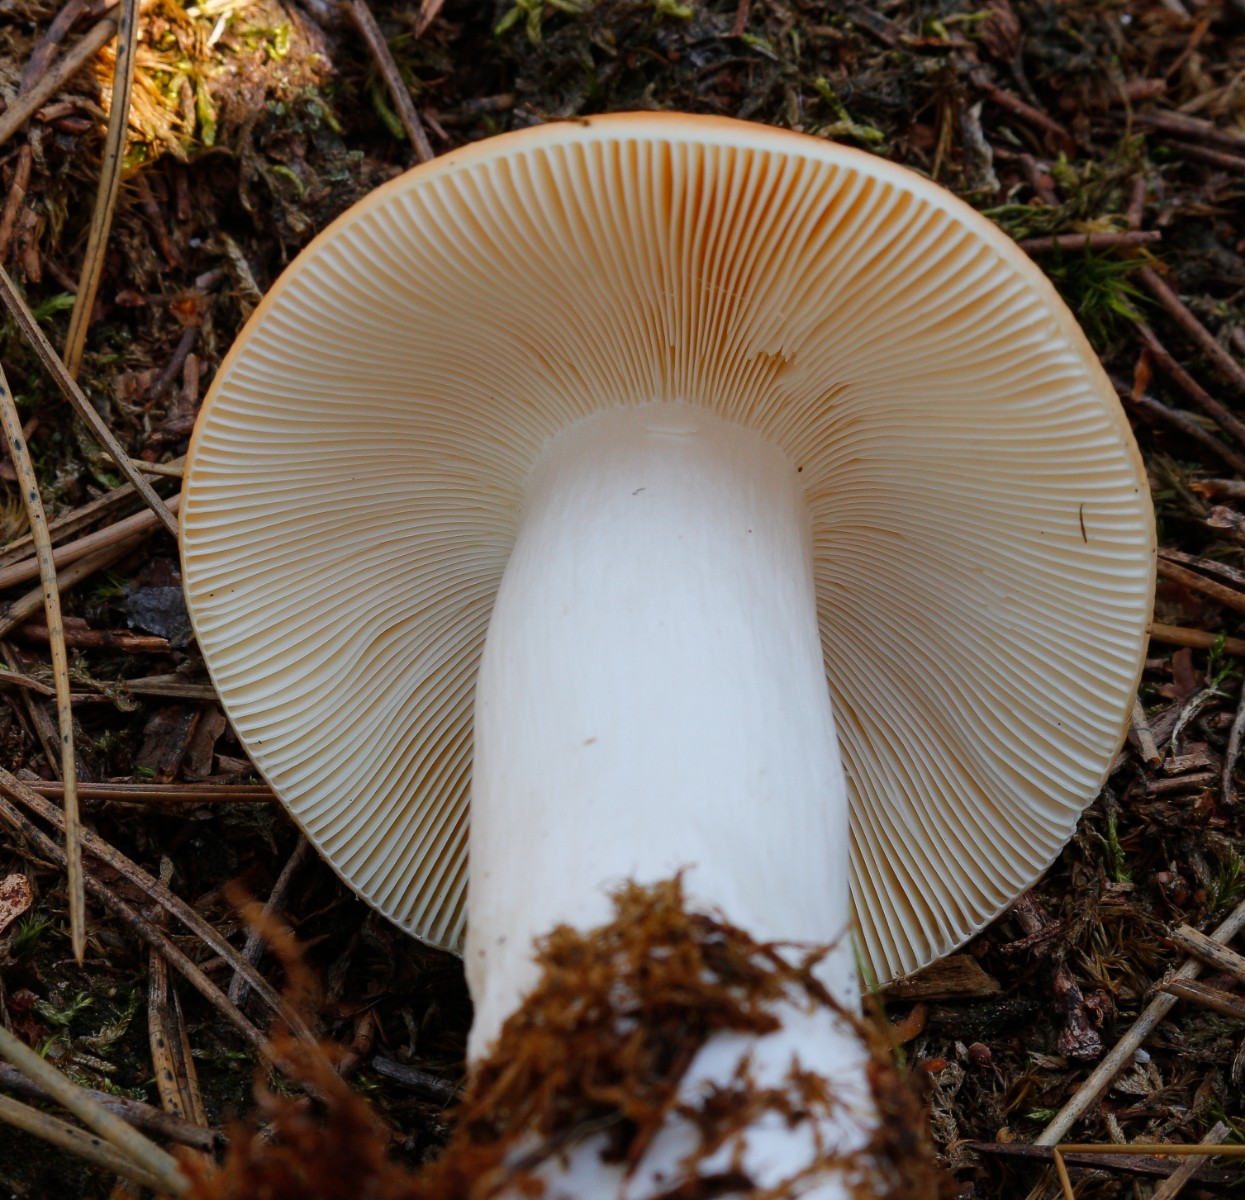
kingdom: Fungi
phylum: Basidiomycota
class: Agaricomycetes
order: Russulales
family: Russulaceae
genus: Russula
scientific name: Russula
